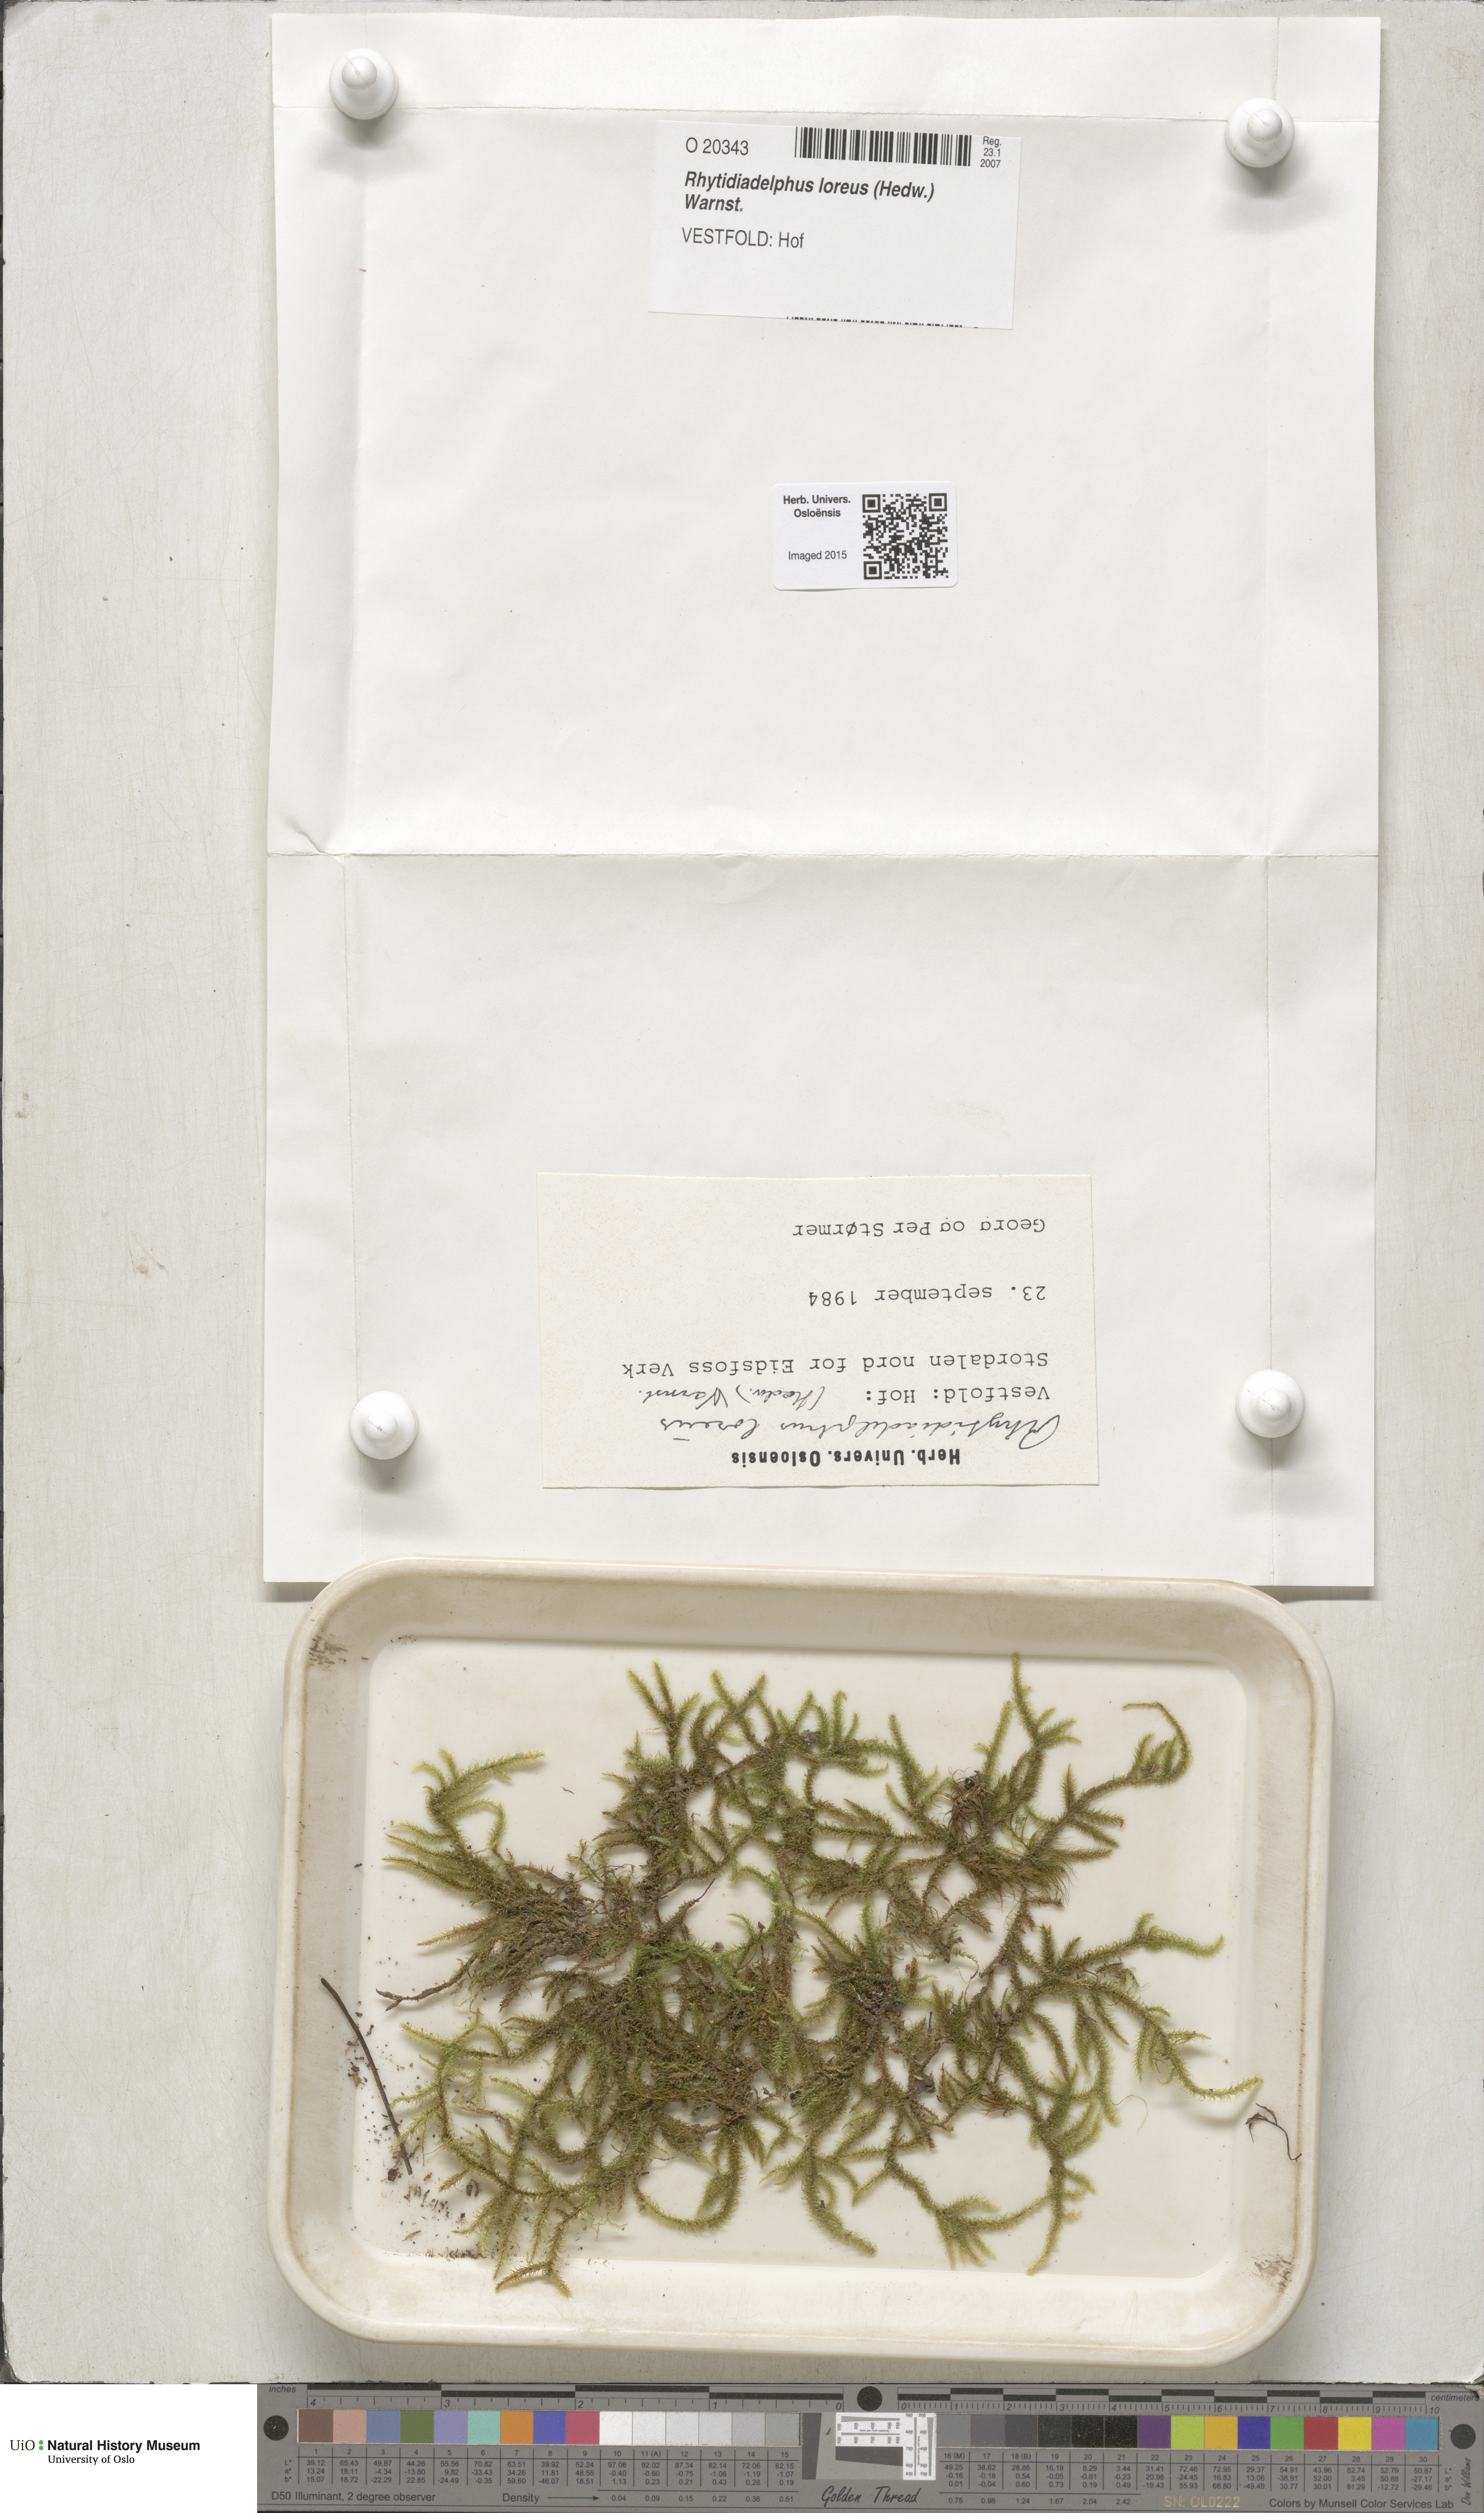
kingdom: Plantae
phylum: Bryophyta
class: Bryopsida
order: Hypnales
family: Hylocomiaceae
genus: Rhytidiadelphus
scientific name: Rhytidiadelphus loreus
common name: Lanky moss
